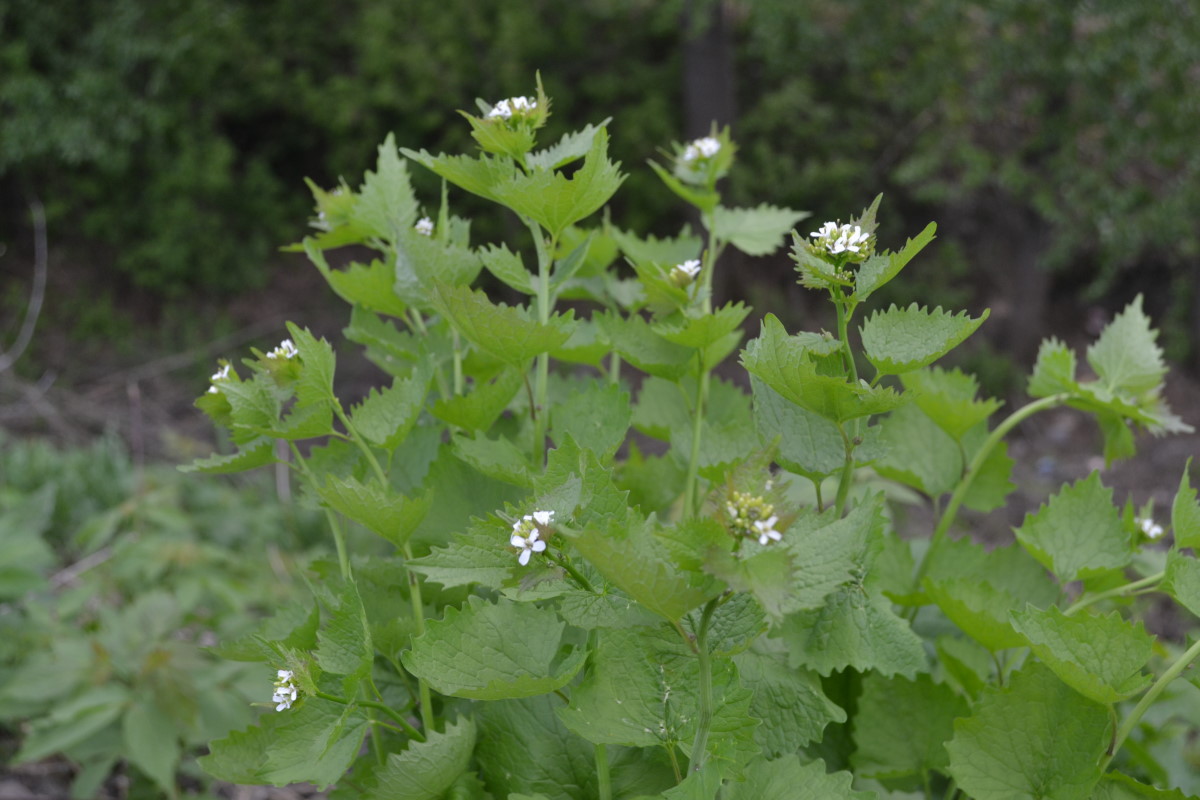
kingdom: Plantae
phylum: Tracheophyta
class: Magnoliopsida
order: Brassicales
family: Brassicaceae
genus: Alliaria
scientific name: Alliaria petiolata
